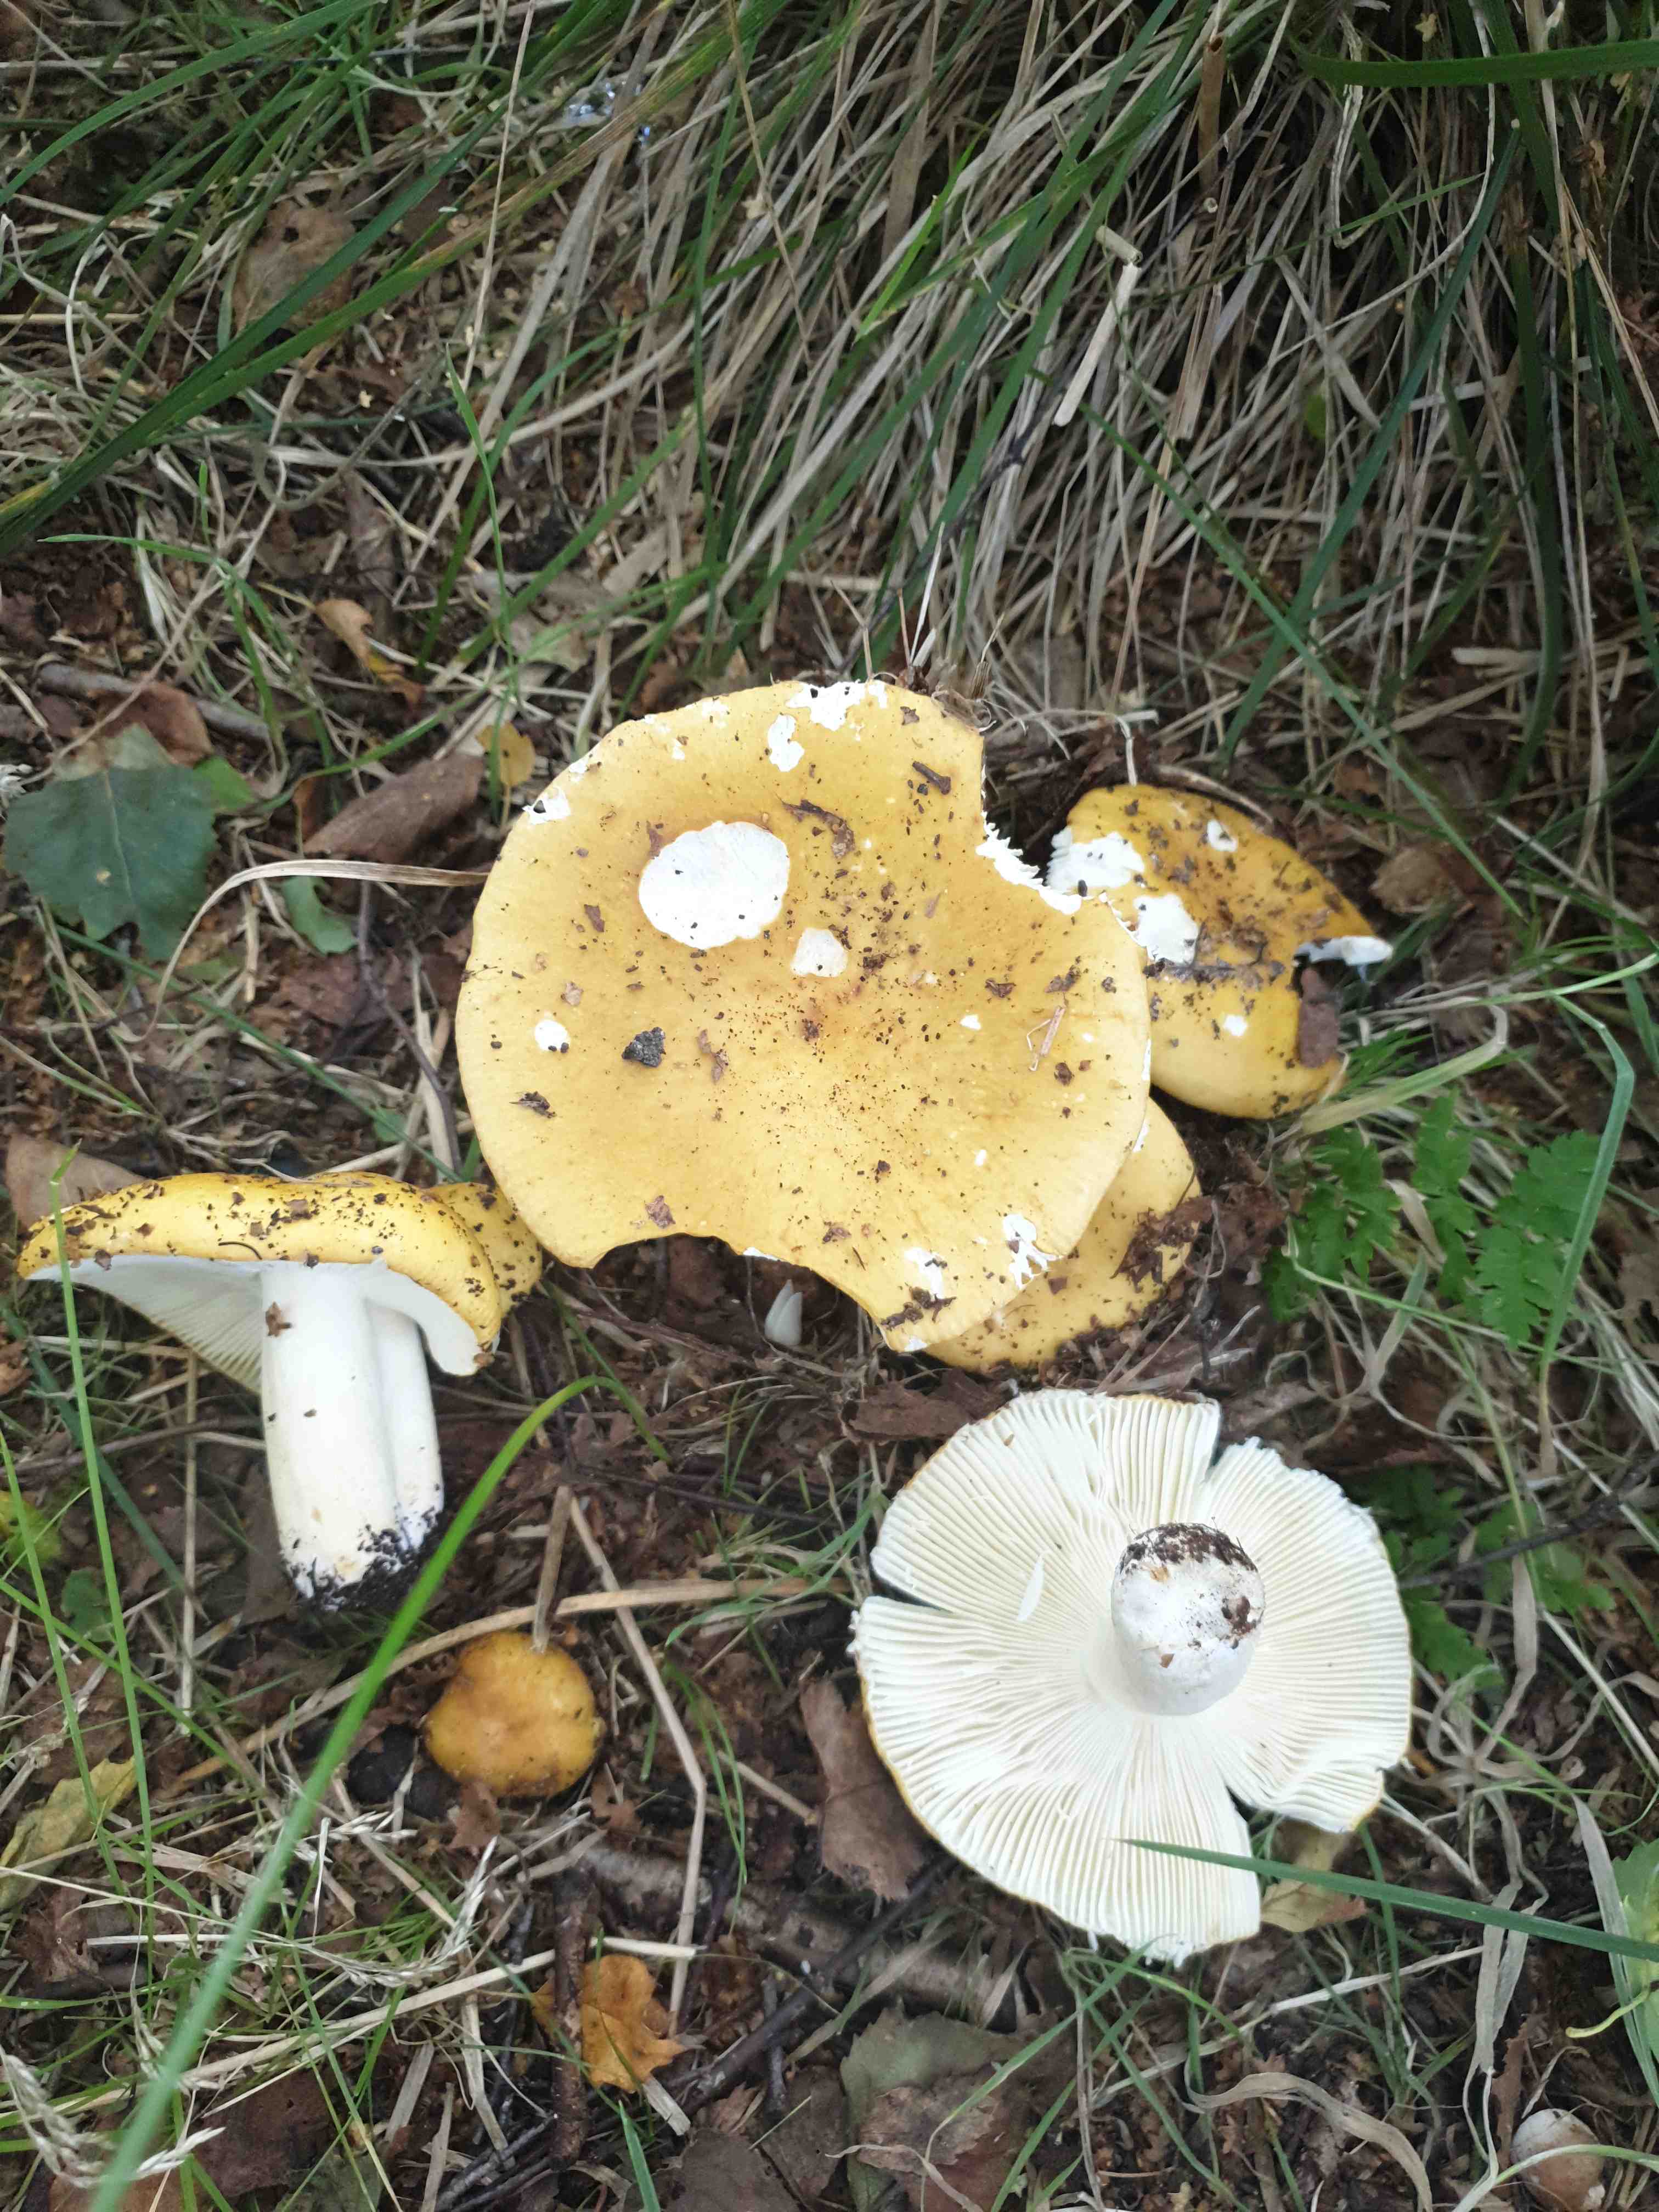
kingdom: Fungi
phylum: Basidiomycota
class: Agaricomycetes
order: Russulales
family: Russulaceae
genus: Russula
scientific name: Russula ochroleuca
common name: okkergul skørhat
